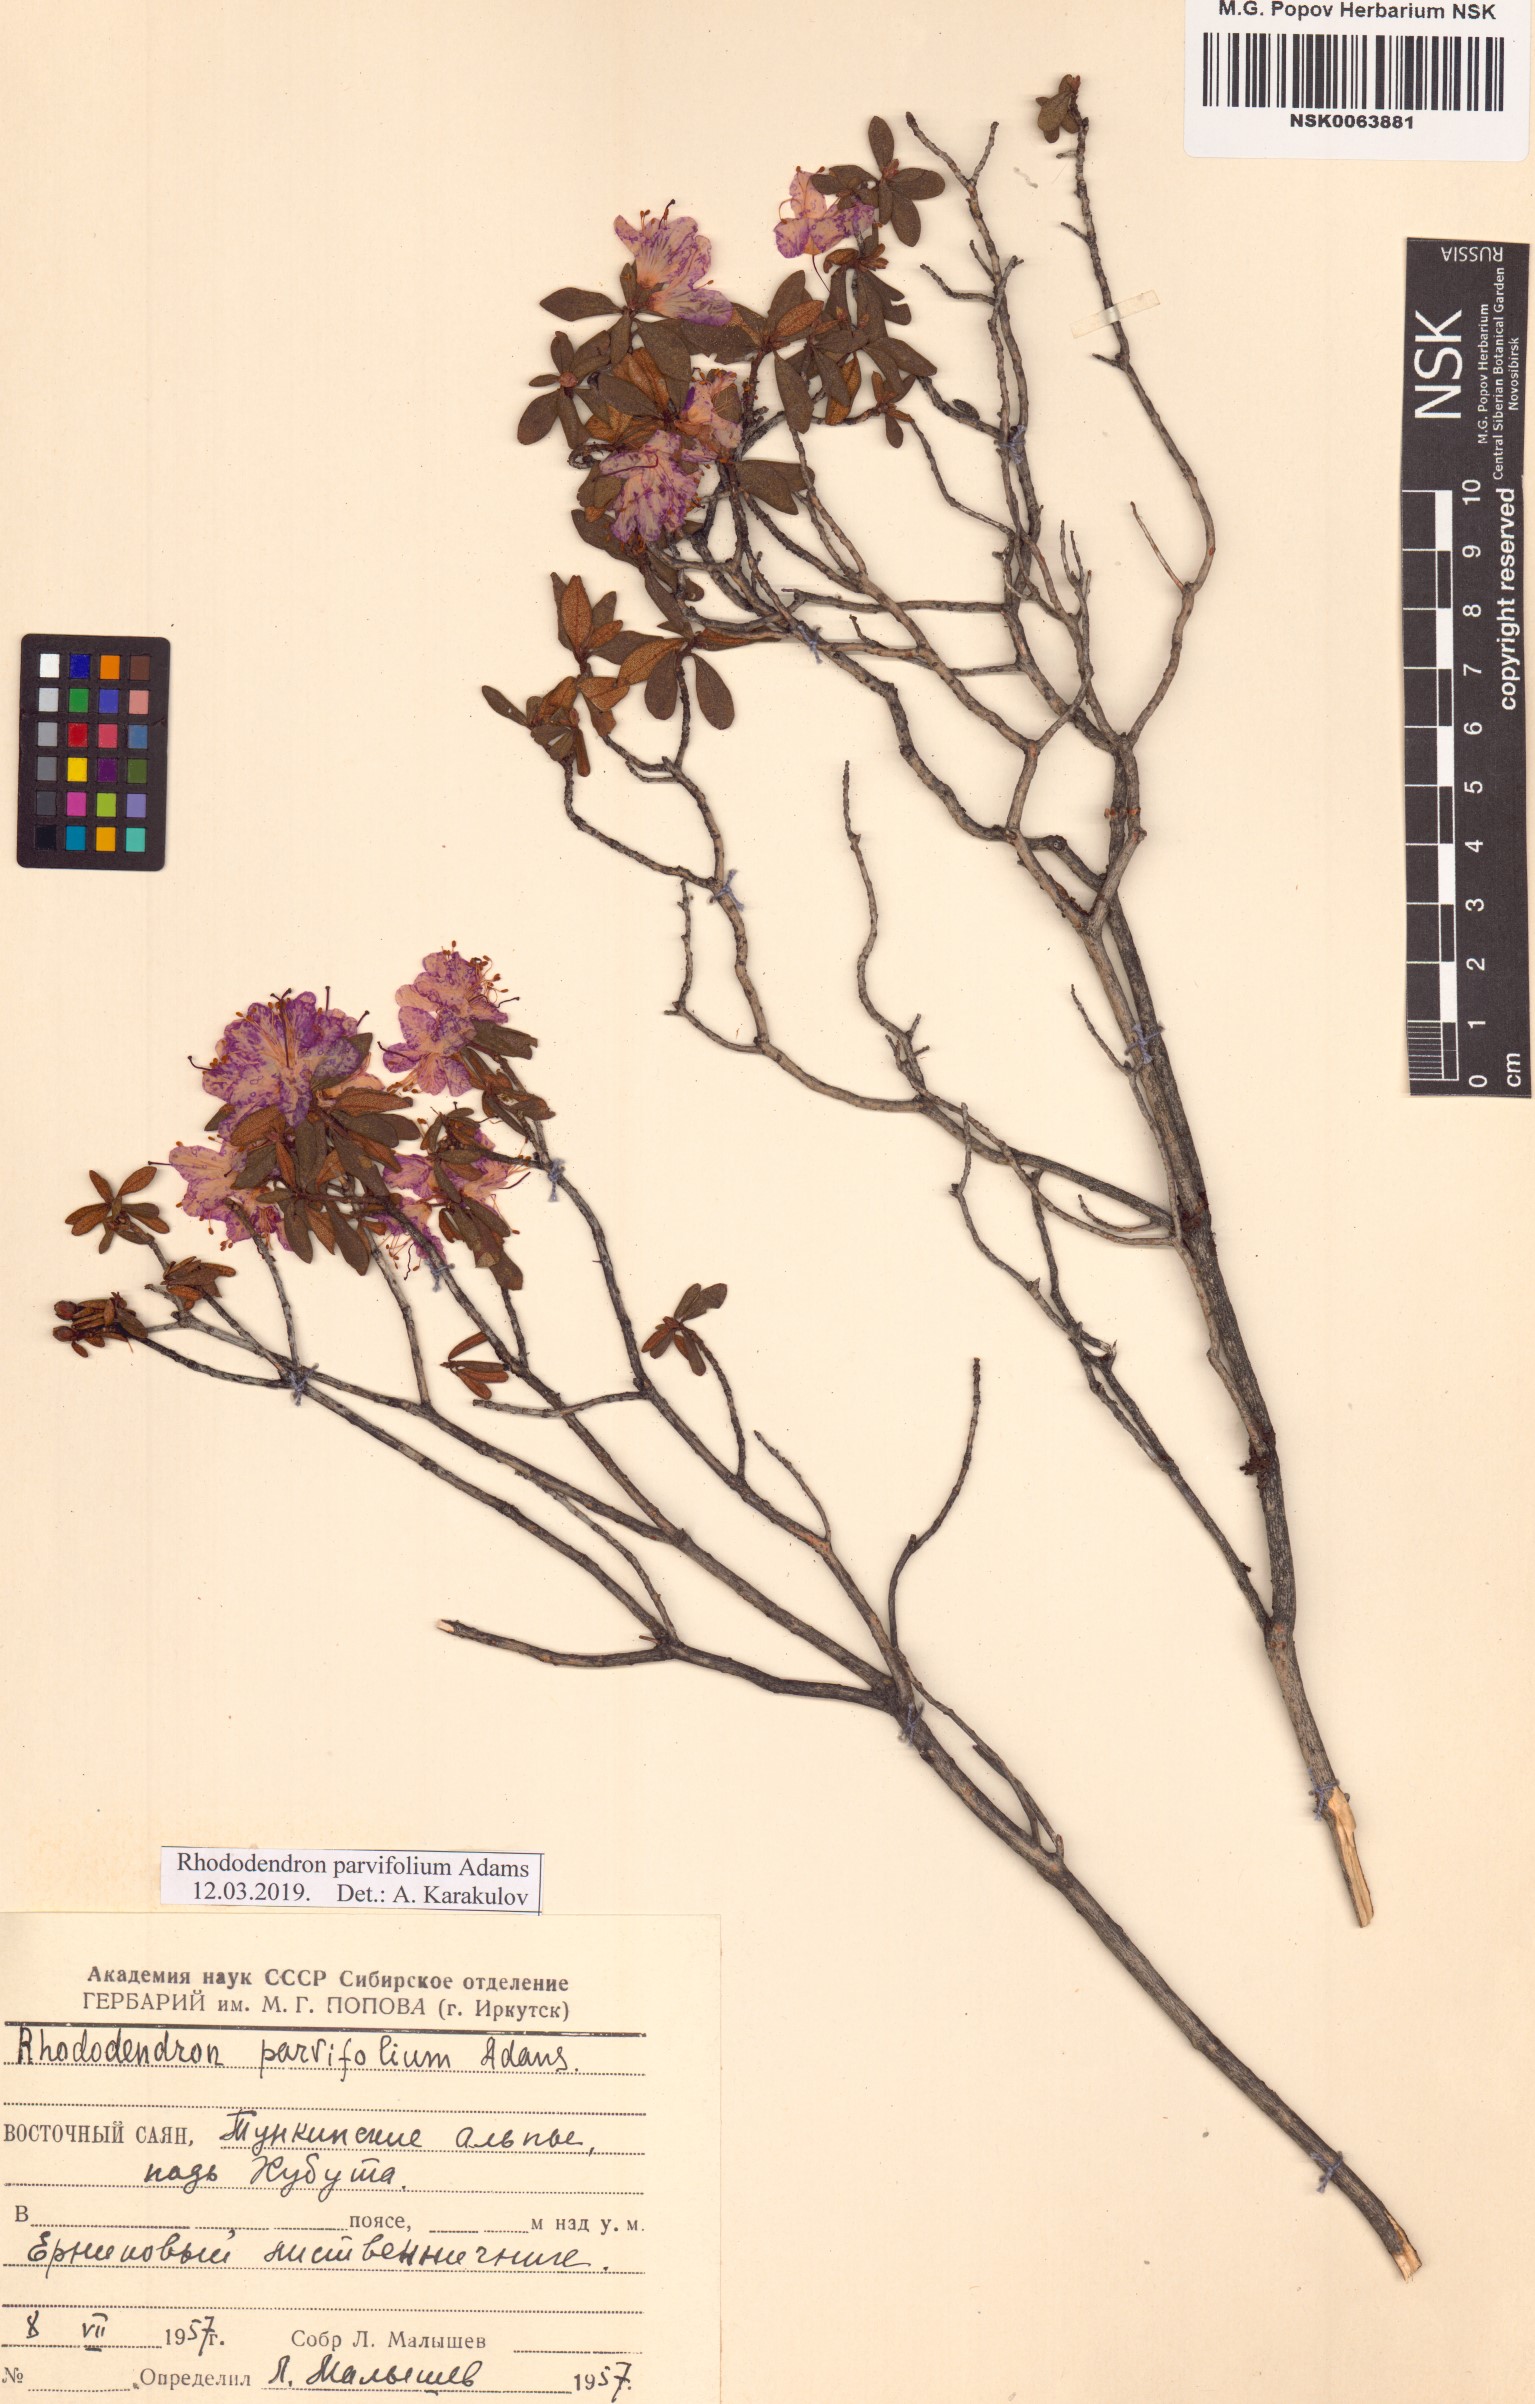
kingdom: Plantae
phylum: Tracheophyta
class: Magnoliopsida
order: Ericales
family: Ericaceae
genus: Rhododendron
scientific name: Rhododendron parvifolium
